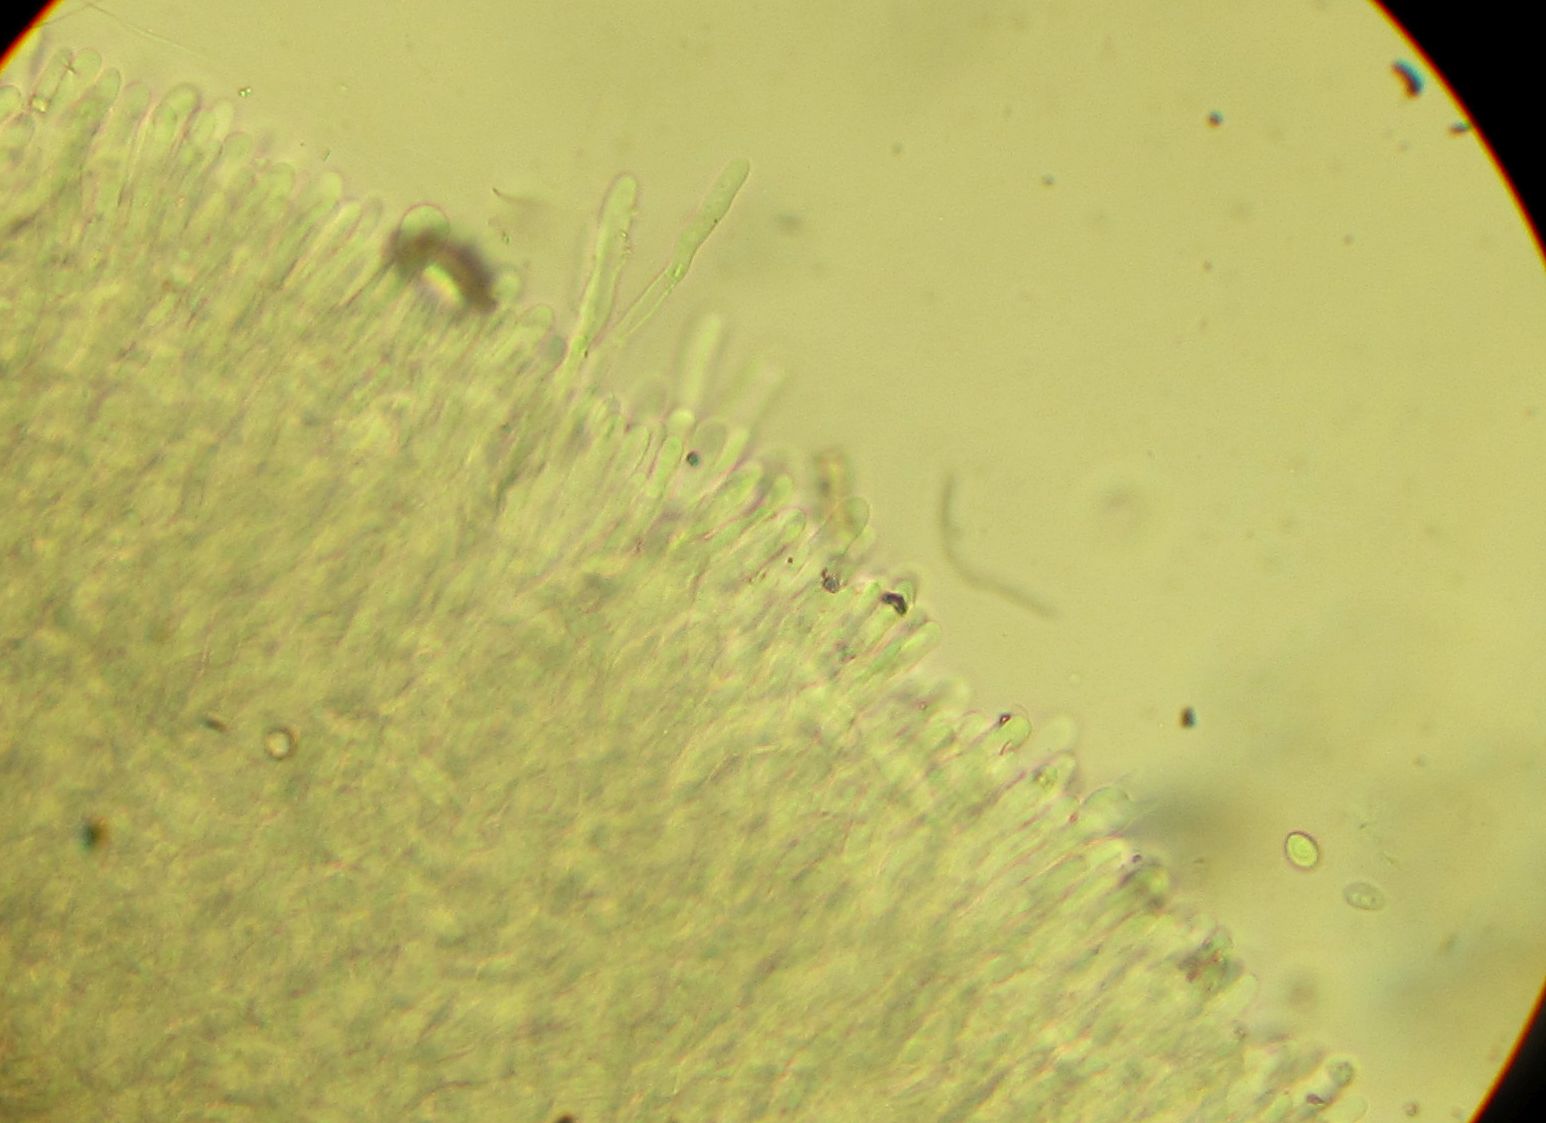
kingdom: Fungi
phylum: Basidiomycota
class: Agaricomycetes
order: Polyporales
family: Phanerochaetaceae
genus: Phanerochaete
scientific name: Phanerochaete sordida
